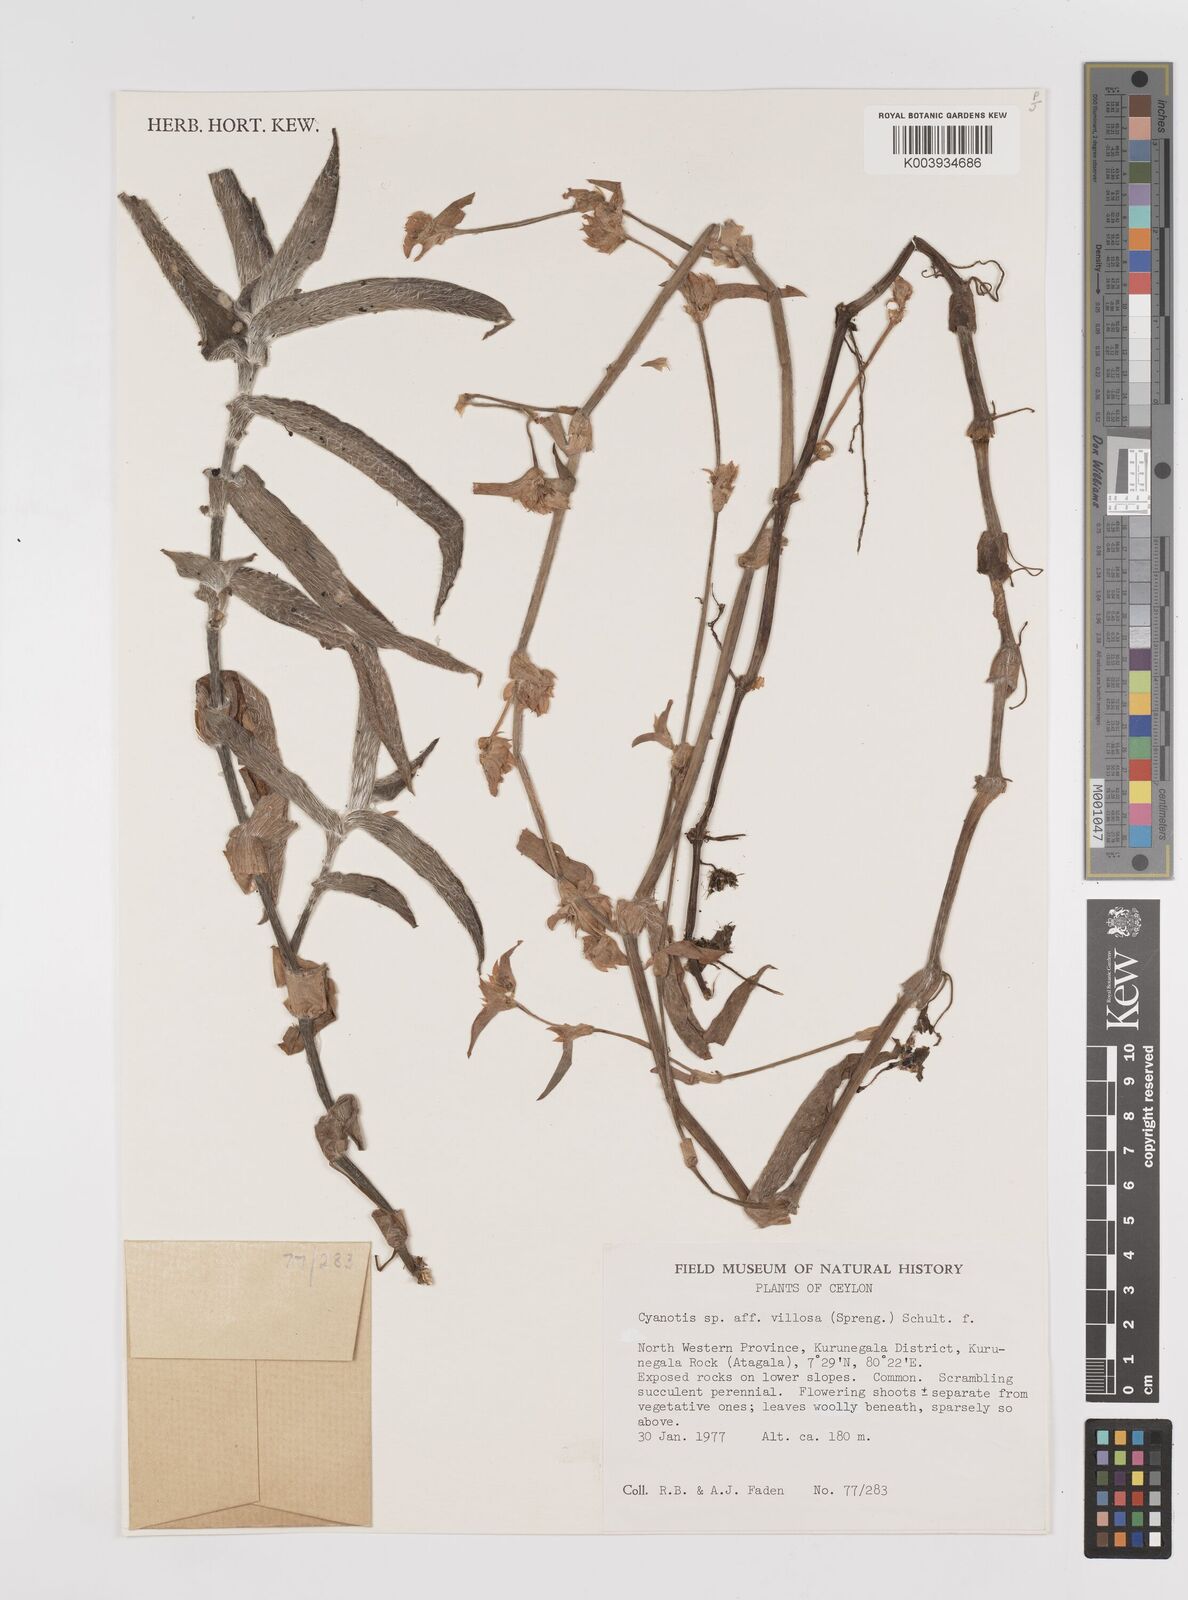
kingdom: Plantae
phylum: Tracheophyta
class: Liliopsida
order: Commelinales
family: Commelinaceae
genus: Cyanotis
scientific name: Cyanotis villosa
